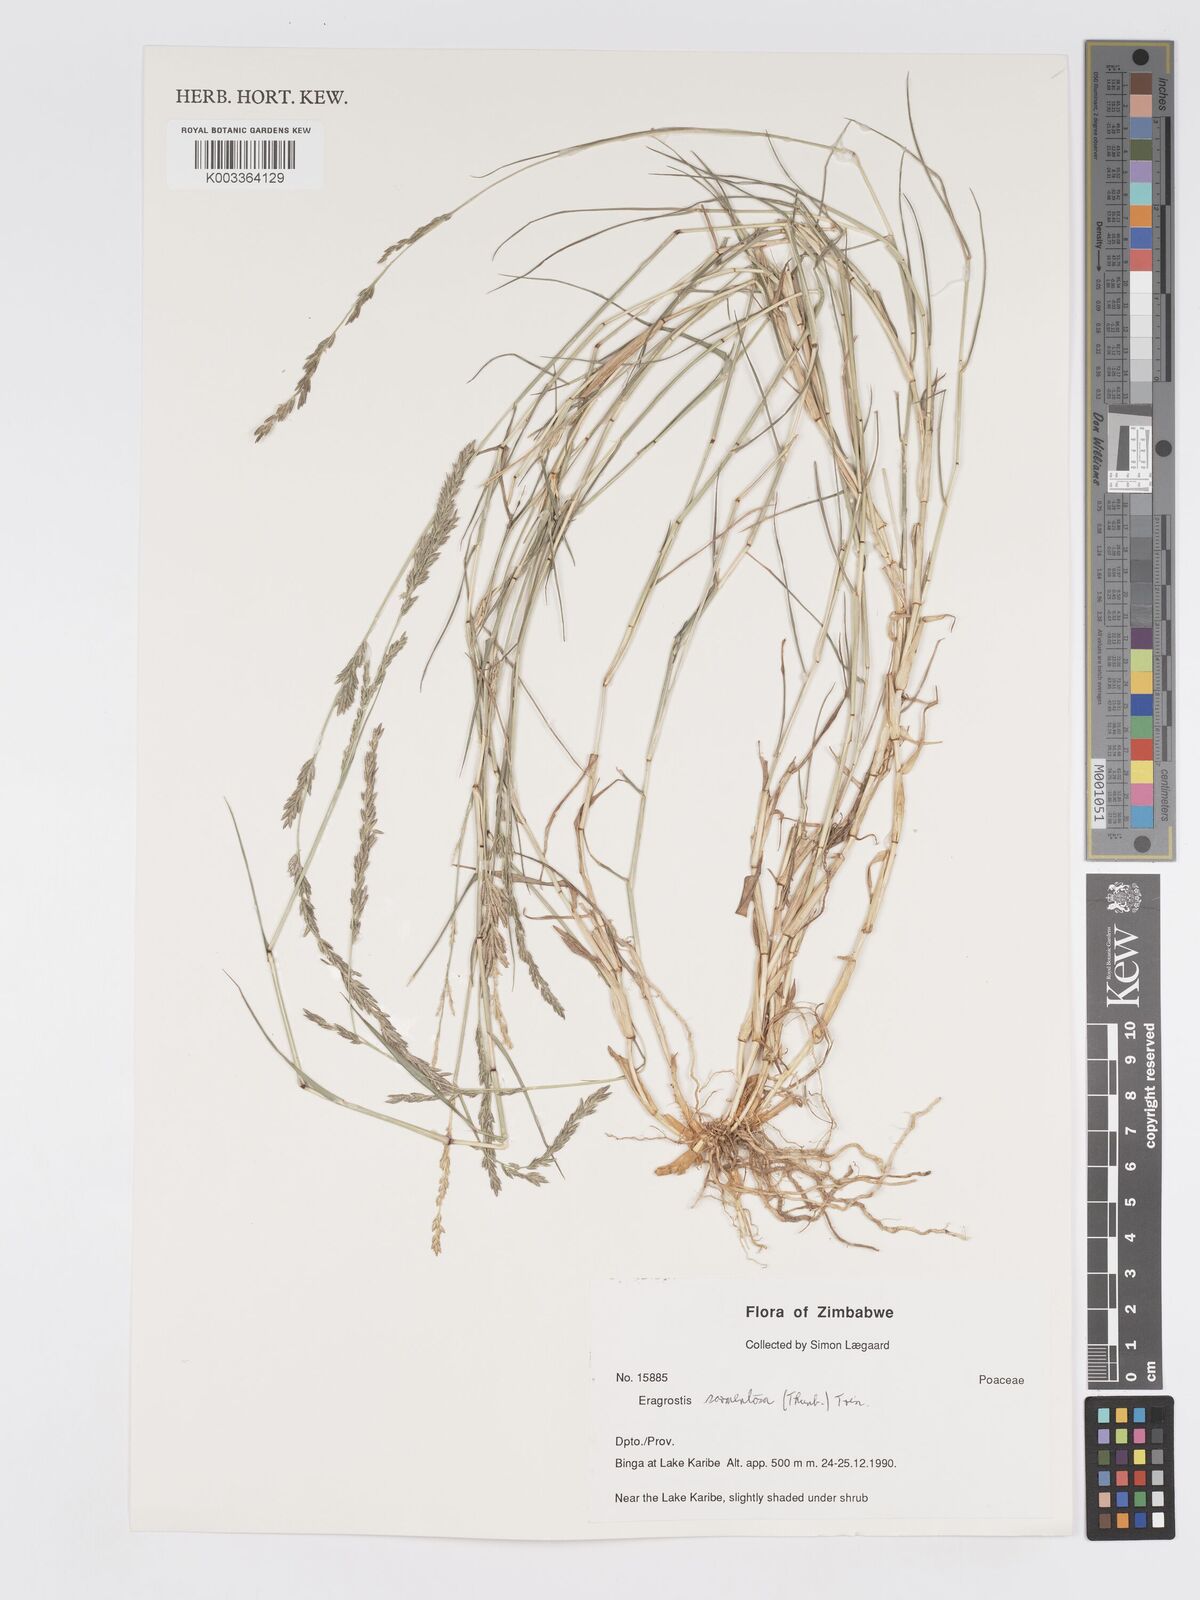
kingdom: Plantae
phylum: Tracheophyta
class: Liliopsida
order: Poales
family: Poaceae
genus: Eragrostis
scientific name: Eragrostis sarmentosa
